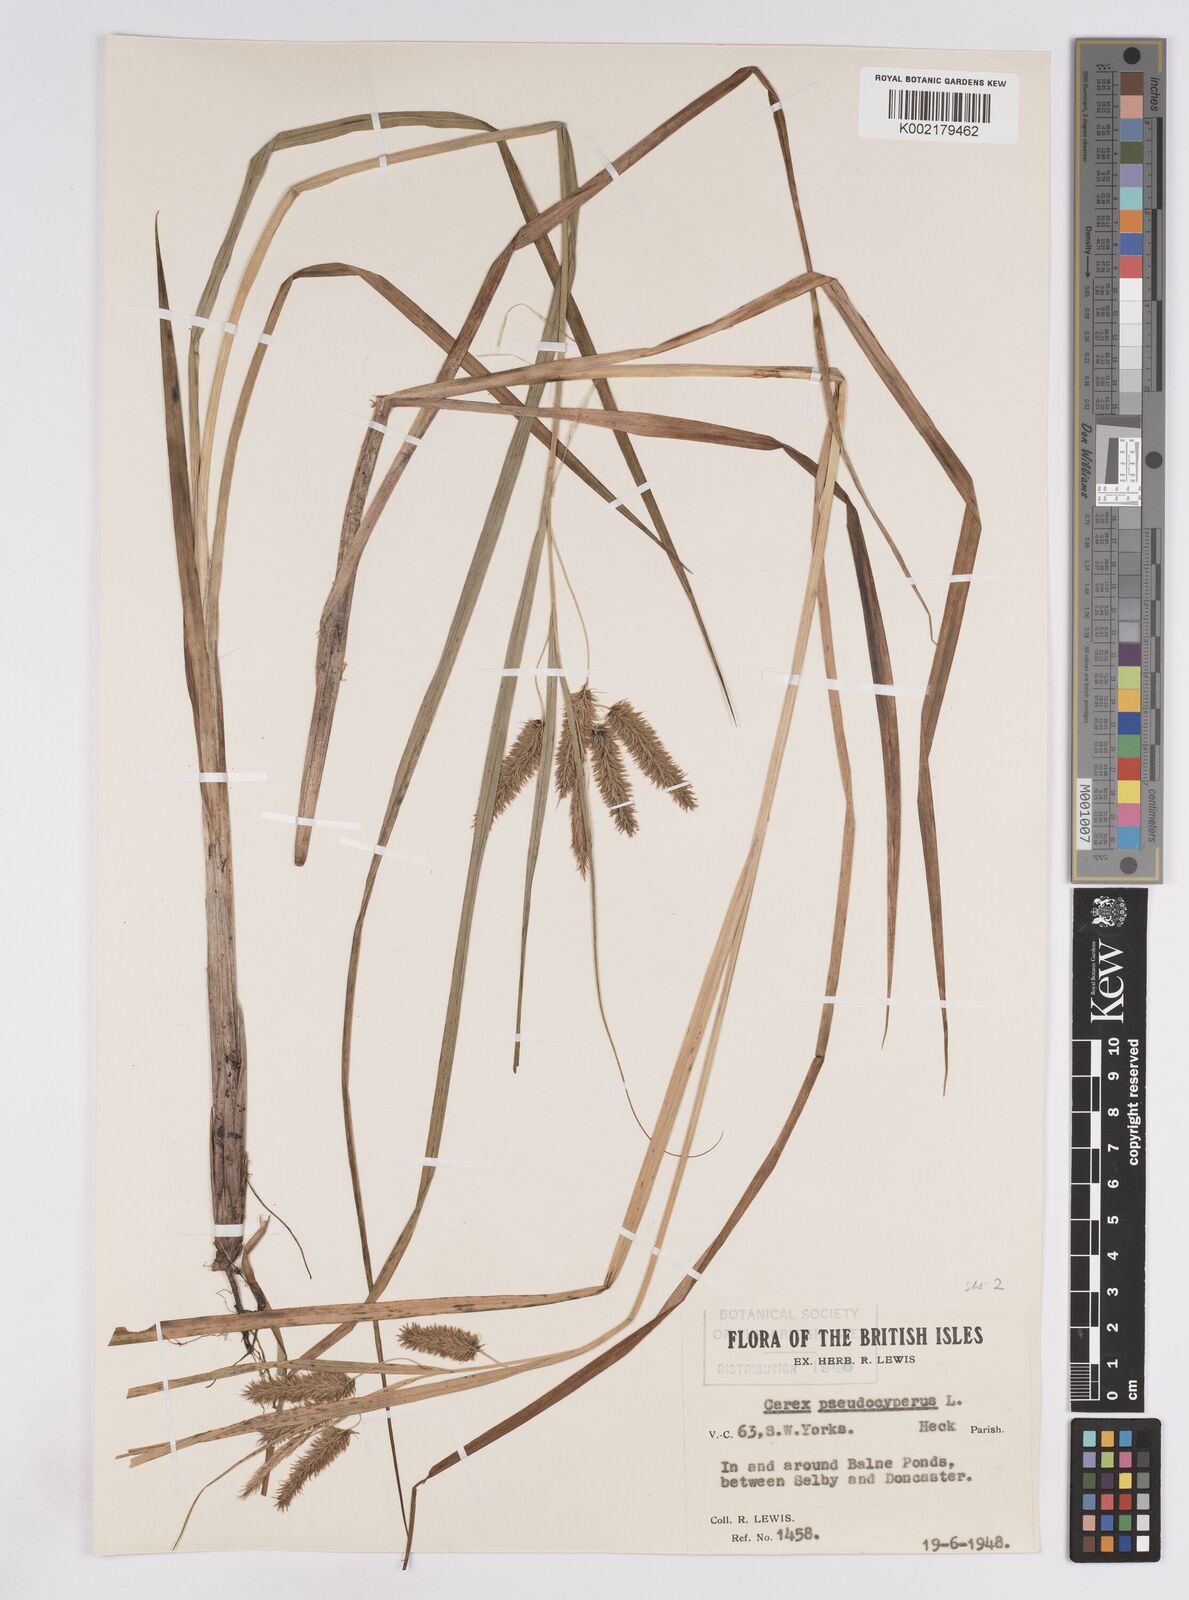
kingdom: Plantae
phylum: Tracheophyta
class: Liliopsida
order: Poales
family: Cyperaceae
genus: Carex
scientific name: Carex pseudocyperus
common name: Cyperus sedge
